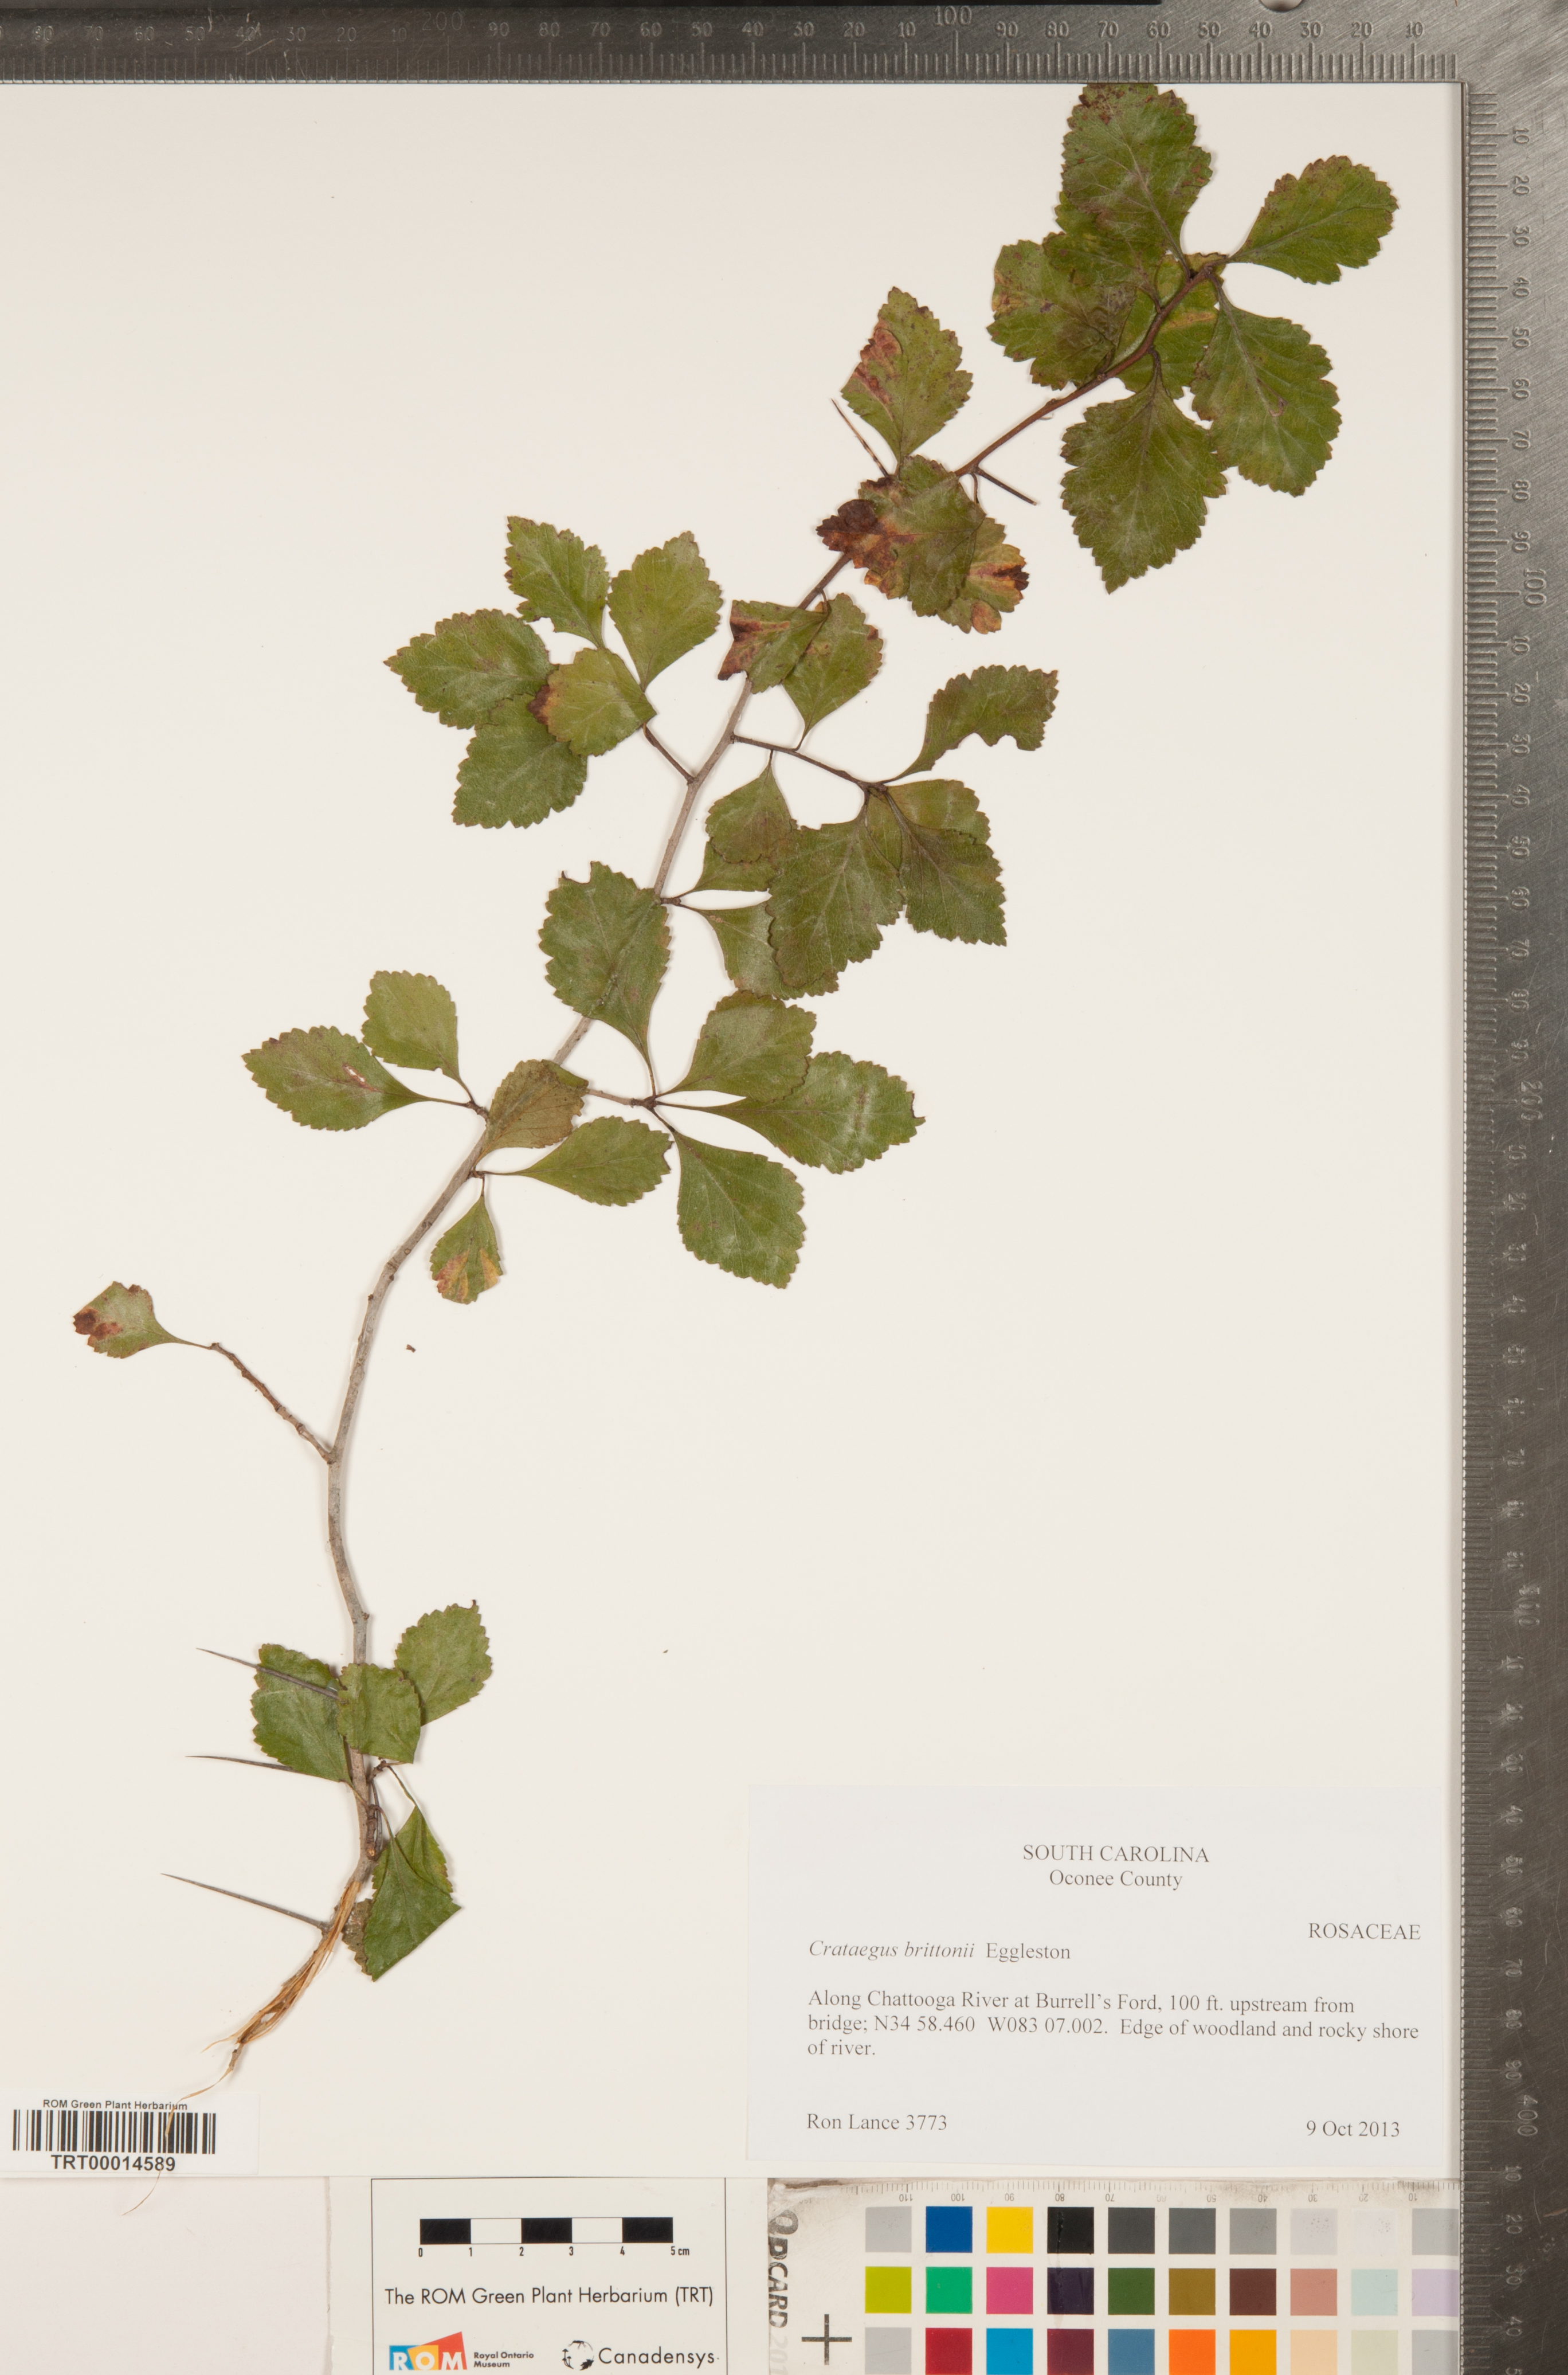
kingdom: Plantae
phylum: Tracheophyta
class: Magnoliopsida
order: Rosales
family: Rosaceae
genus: Crataegus
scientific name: Crataegus uniflora
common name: One-flower hawthorn
